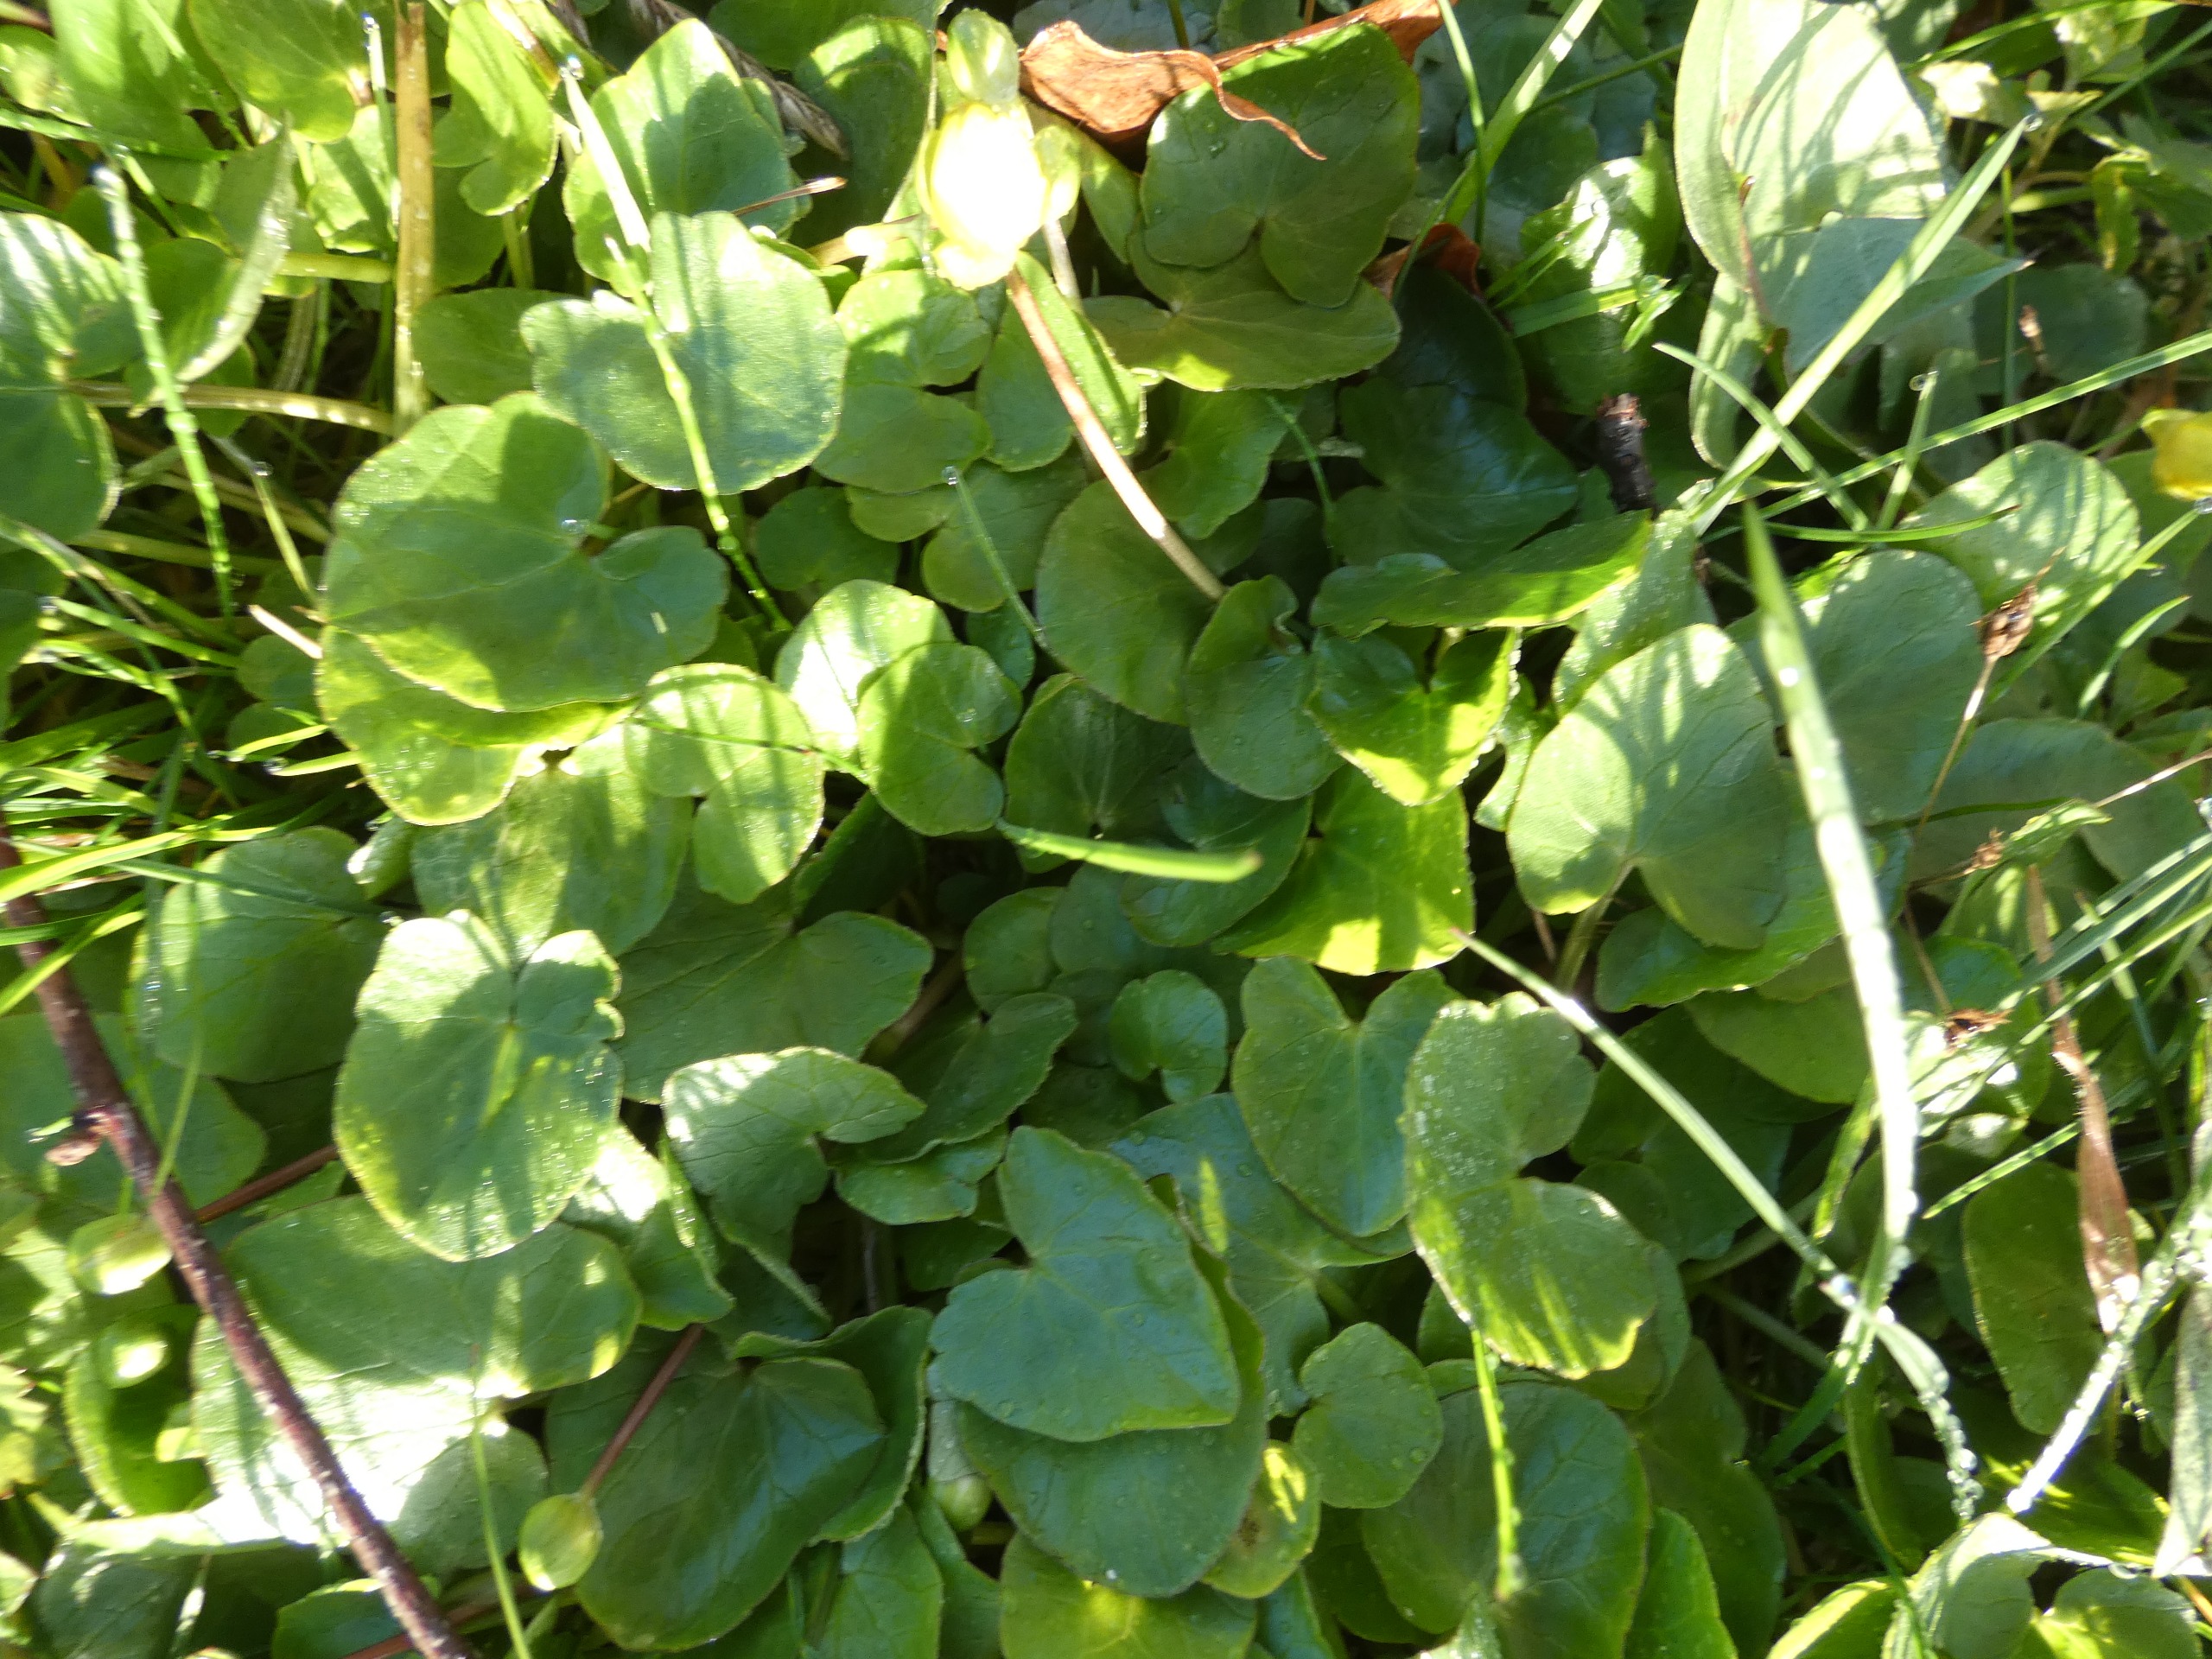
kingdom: Plantae
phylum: Tracheophyta
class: Magnoliopsida
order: Ranunculales
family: Ranunculaceae
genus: Ficaria
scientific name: Ficaria verna
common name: Vorterod
